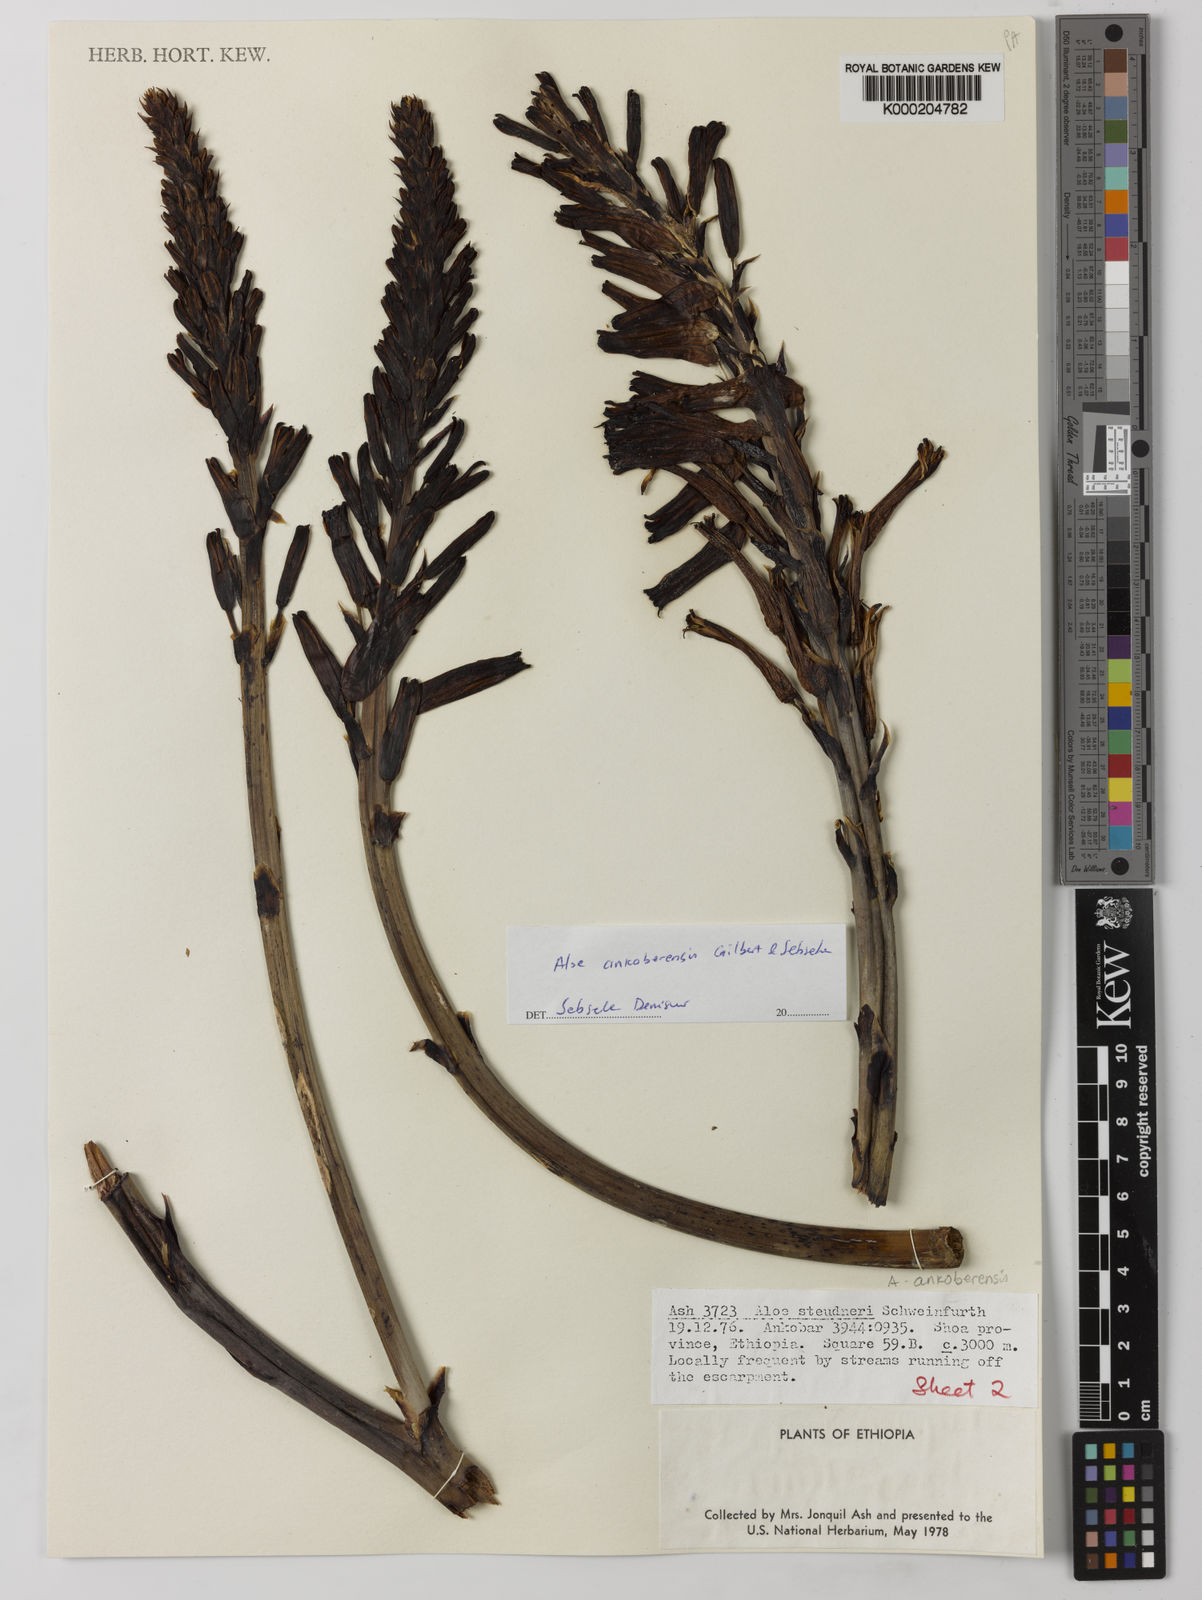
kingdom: Plantae
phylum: Tracheophyta
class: Liliopsida
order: Asparagales
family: Asphodelaceae
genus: Aloe
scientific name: Aloe ankoberensis
